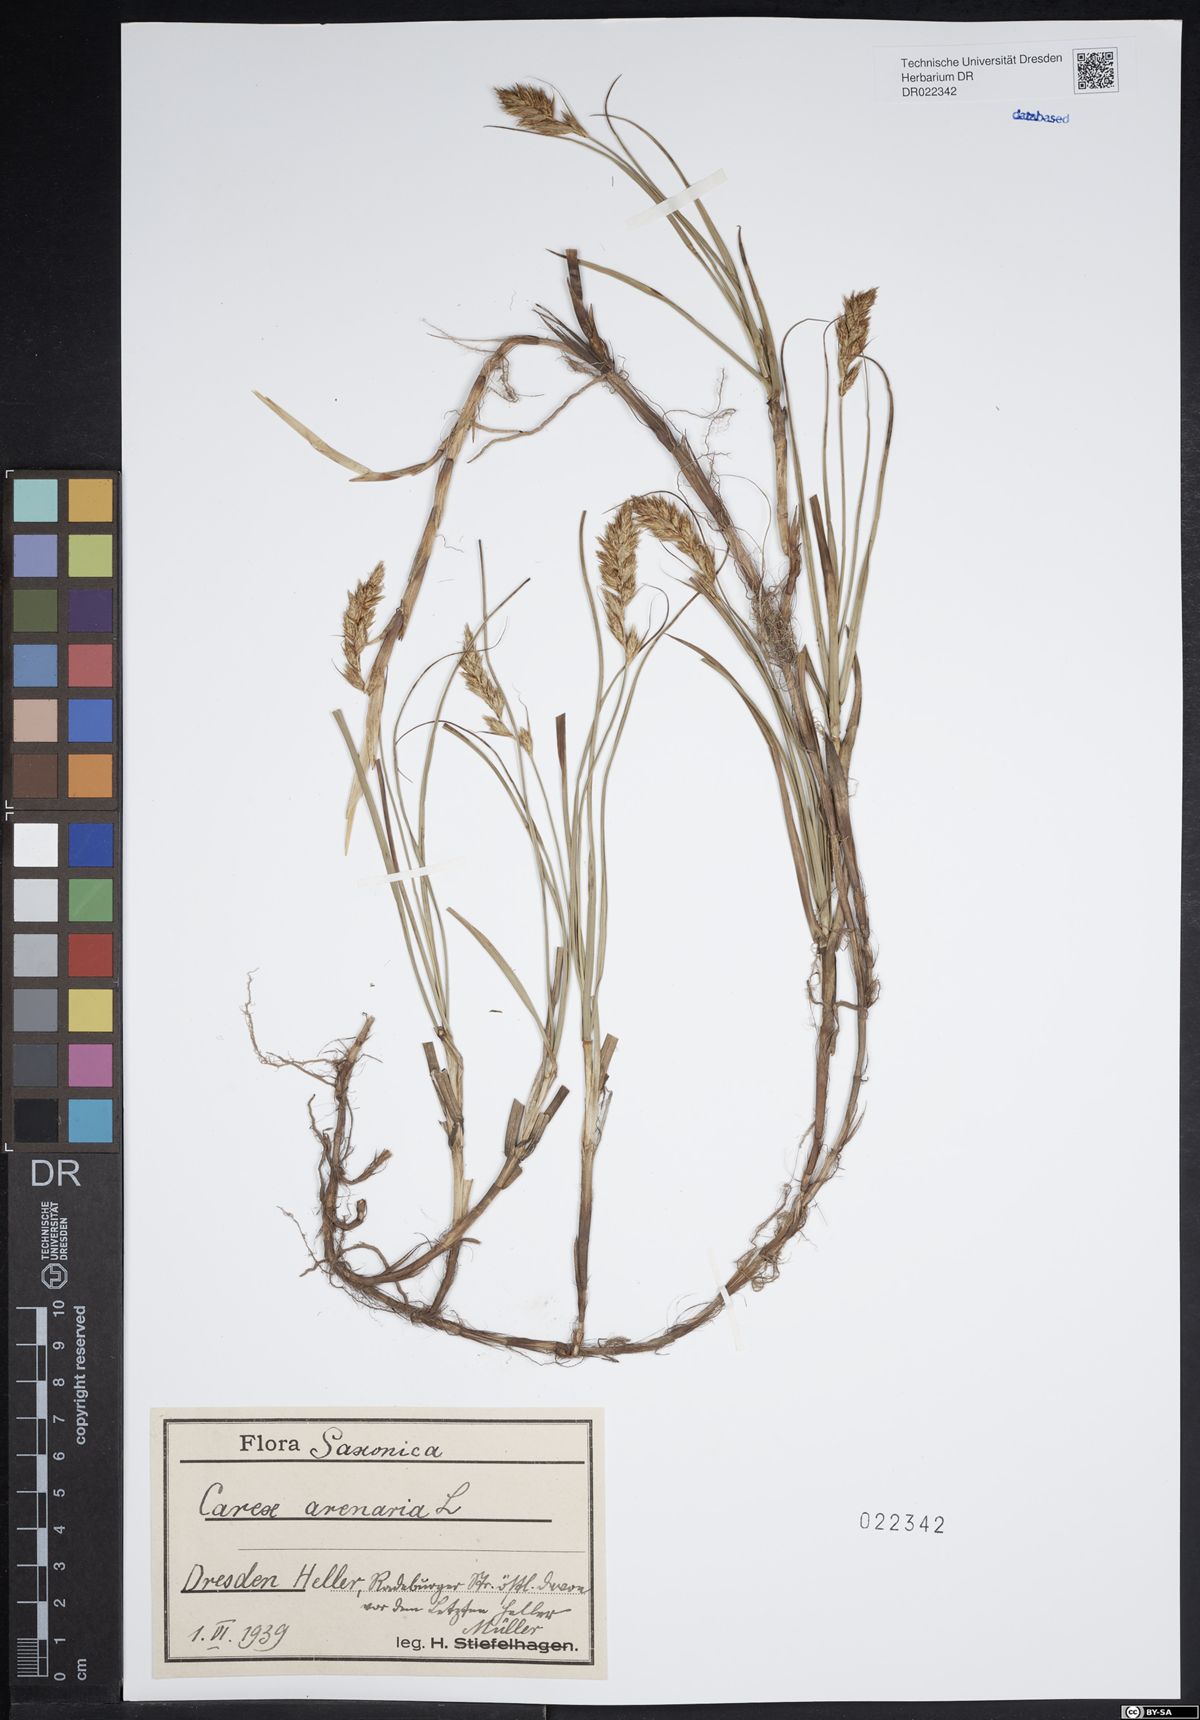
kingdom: Plantae
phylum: Tracheophyta
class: Liliopsida
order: Poales
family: Cyperaceae
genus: Carex
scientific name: Carex arenaria
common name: Sand sedge
